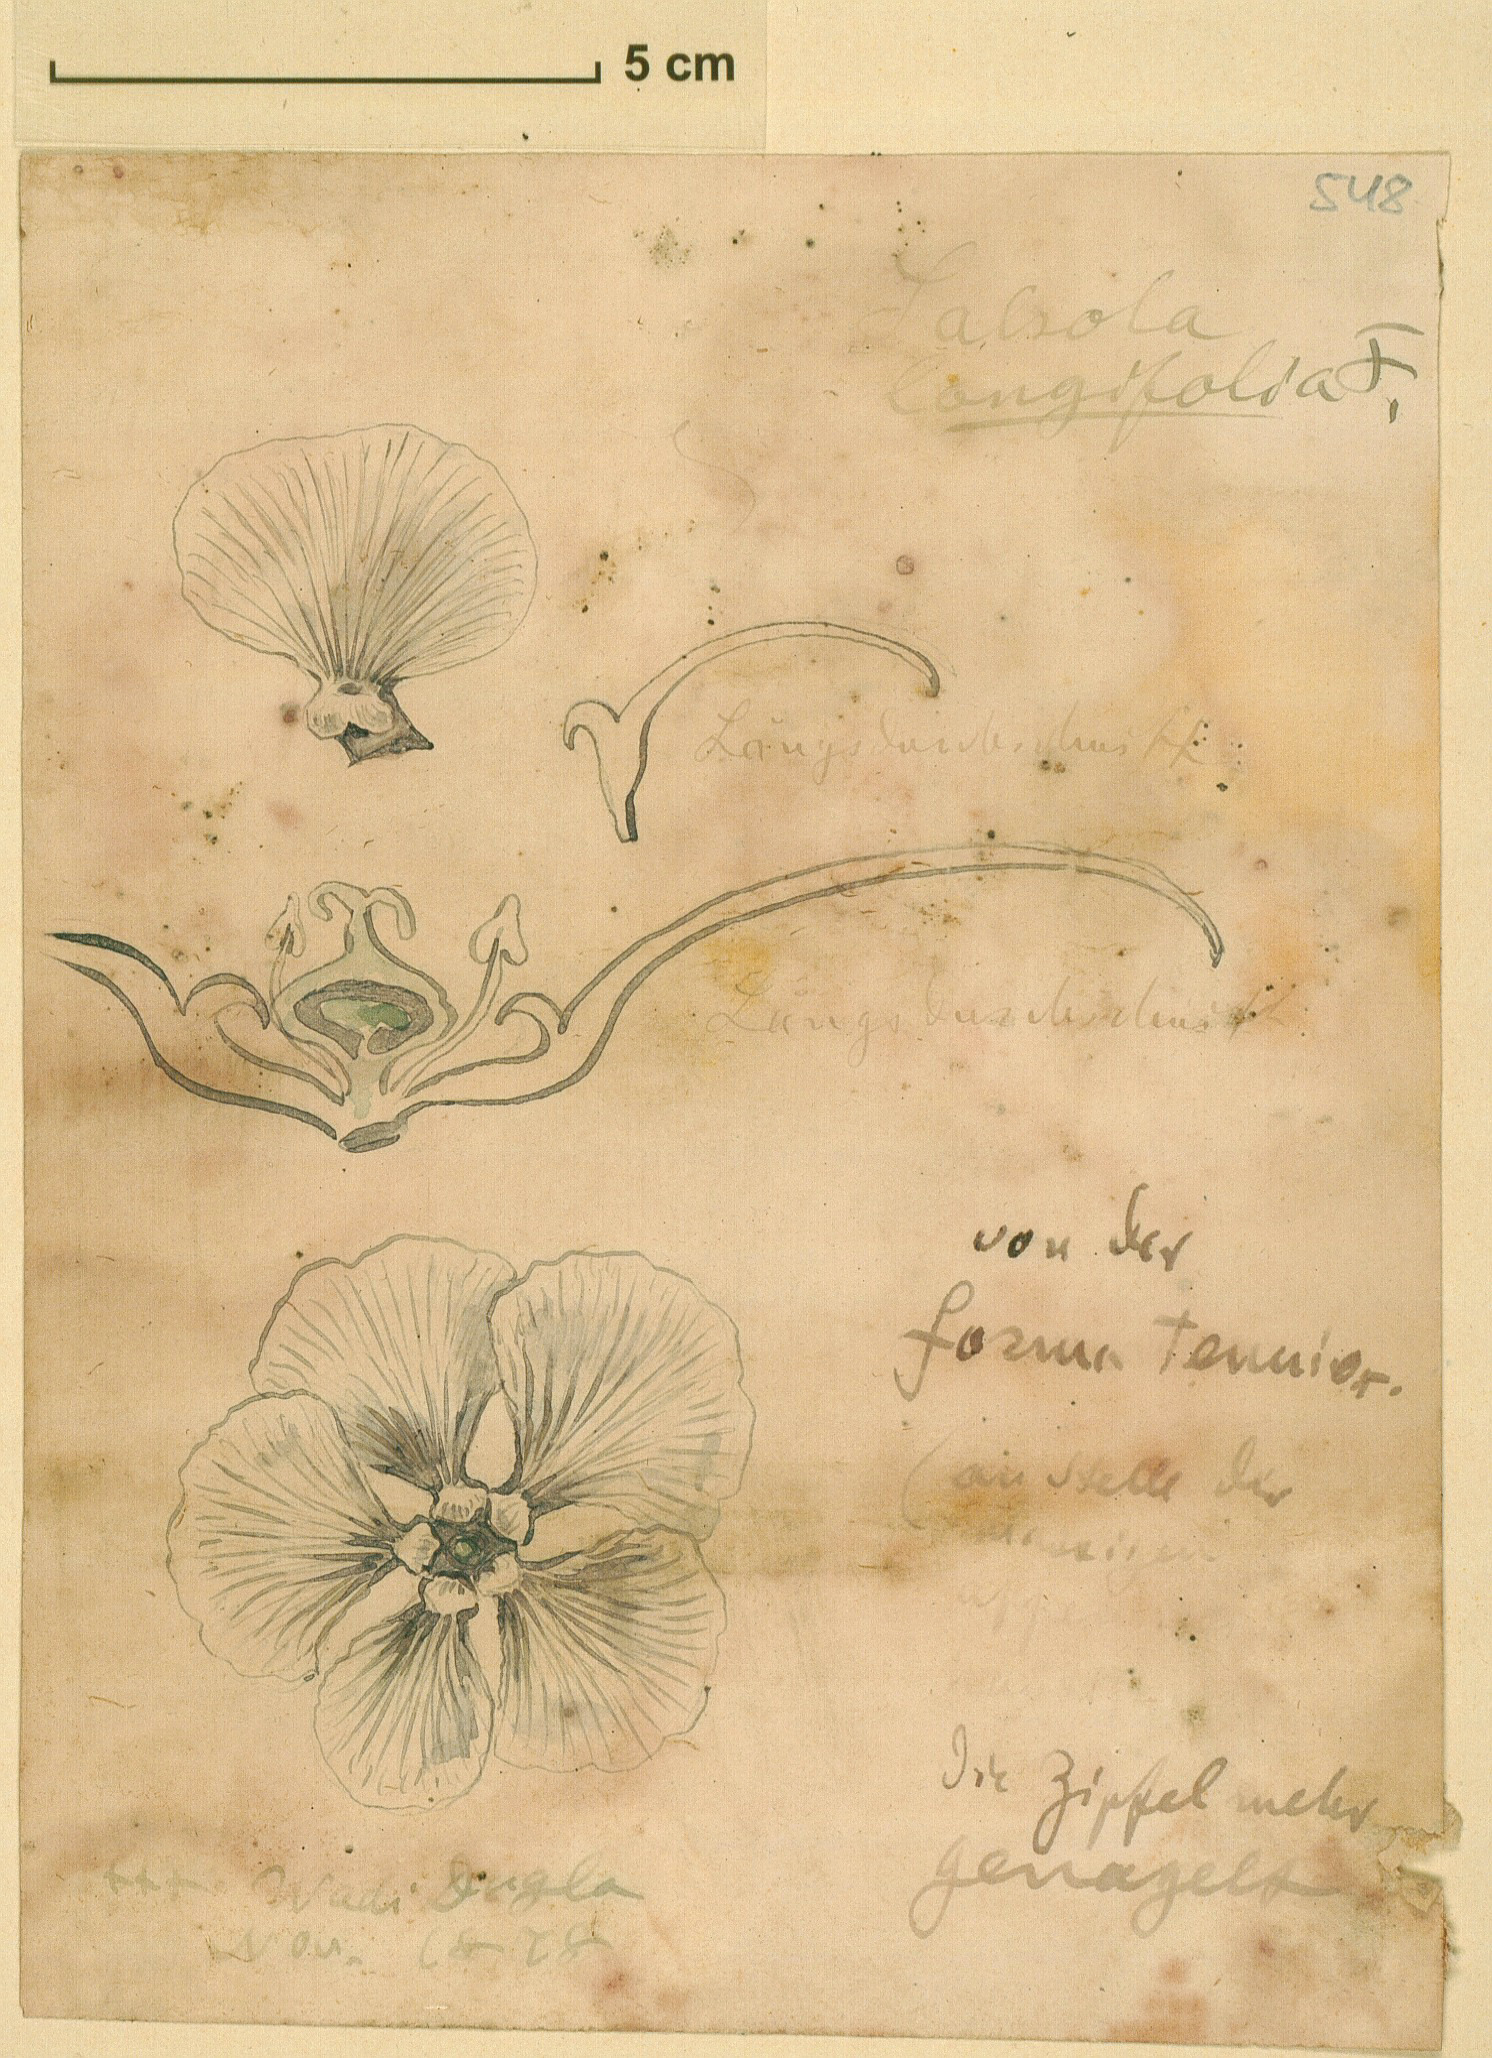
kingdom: Plantae
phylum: Tracheophyta
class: Magnoliopsida
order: Caryophyllales
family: Amaranthaceae
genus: Soda
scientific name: Soda
